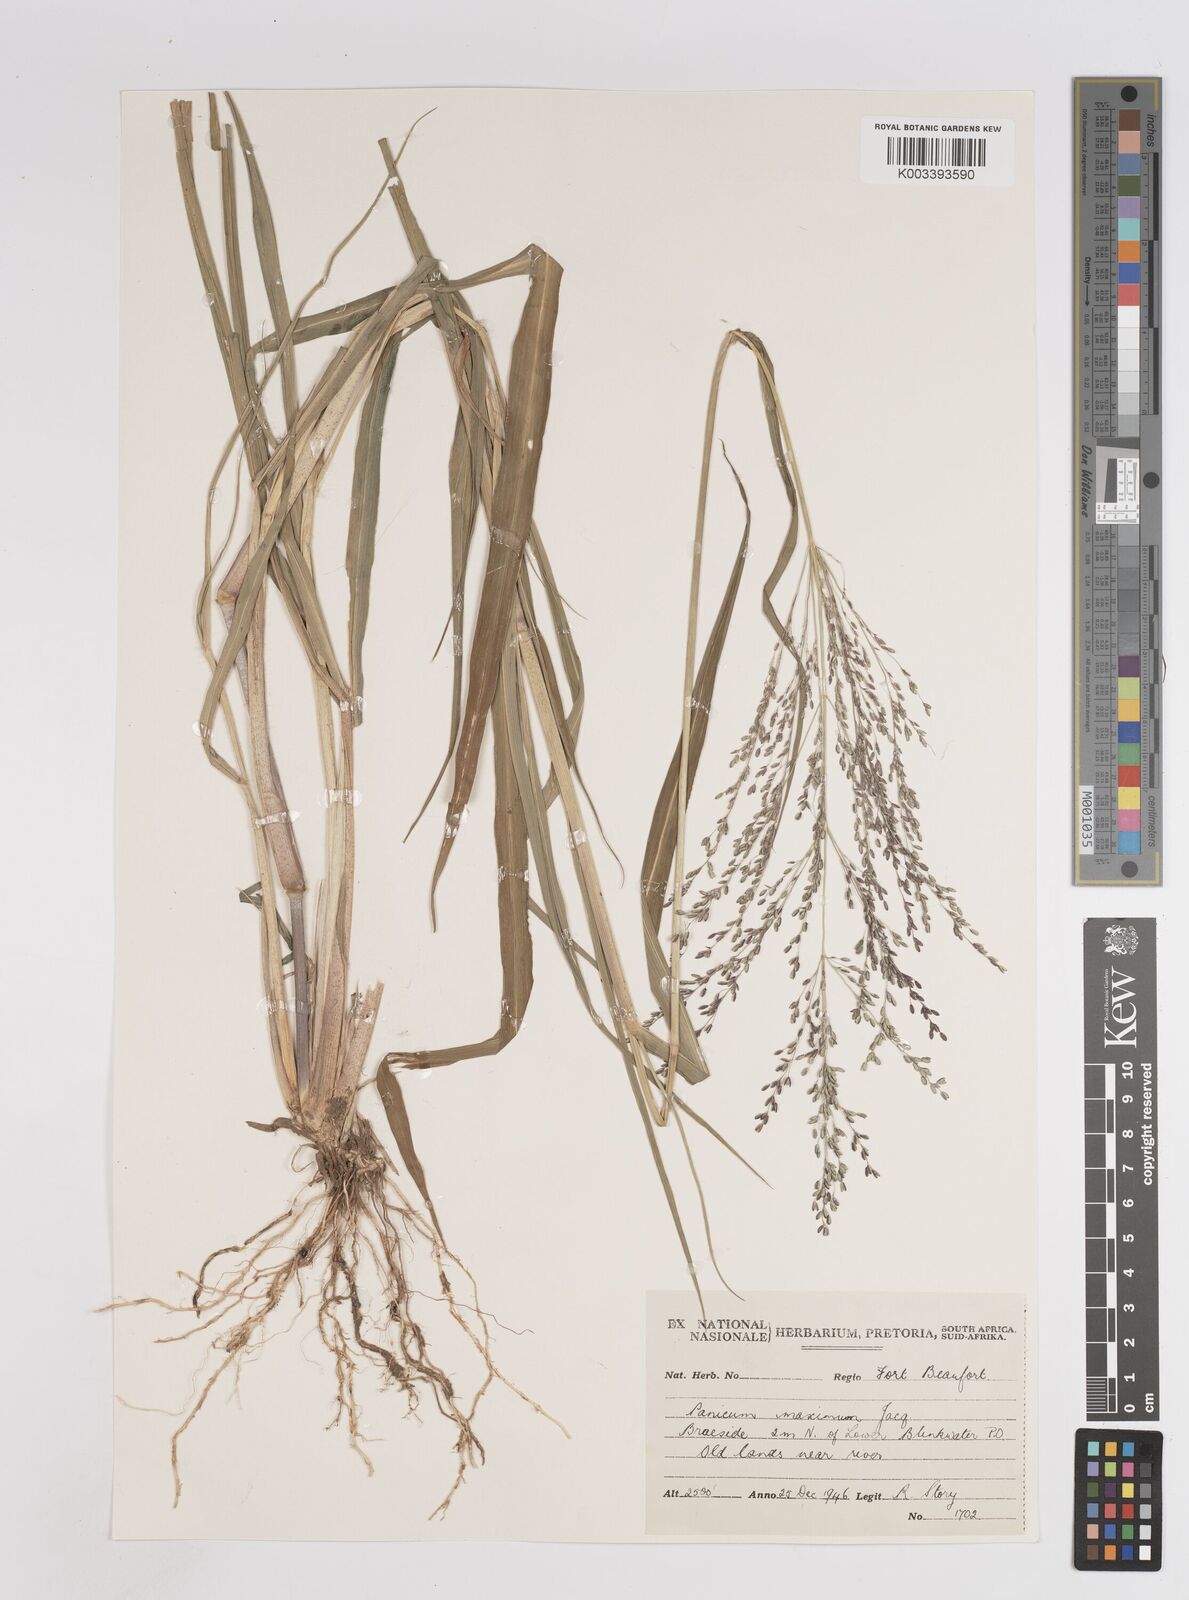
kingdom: Plantae
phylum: Tracheophyta
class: Liliopsida
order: Poales
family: Poaceae
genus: Megathyrsus
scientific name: Megathyrsus maximus
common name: Guineagrass
